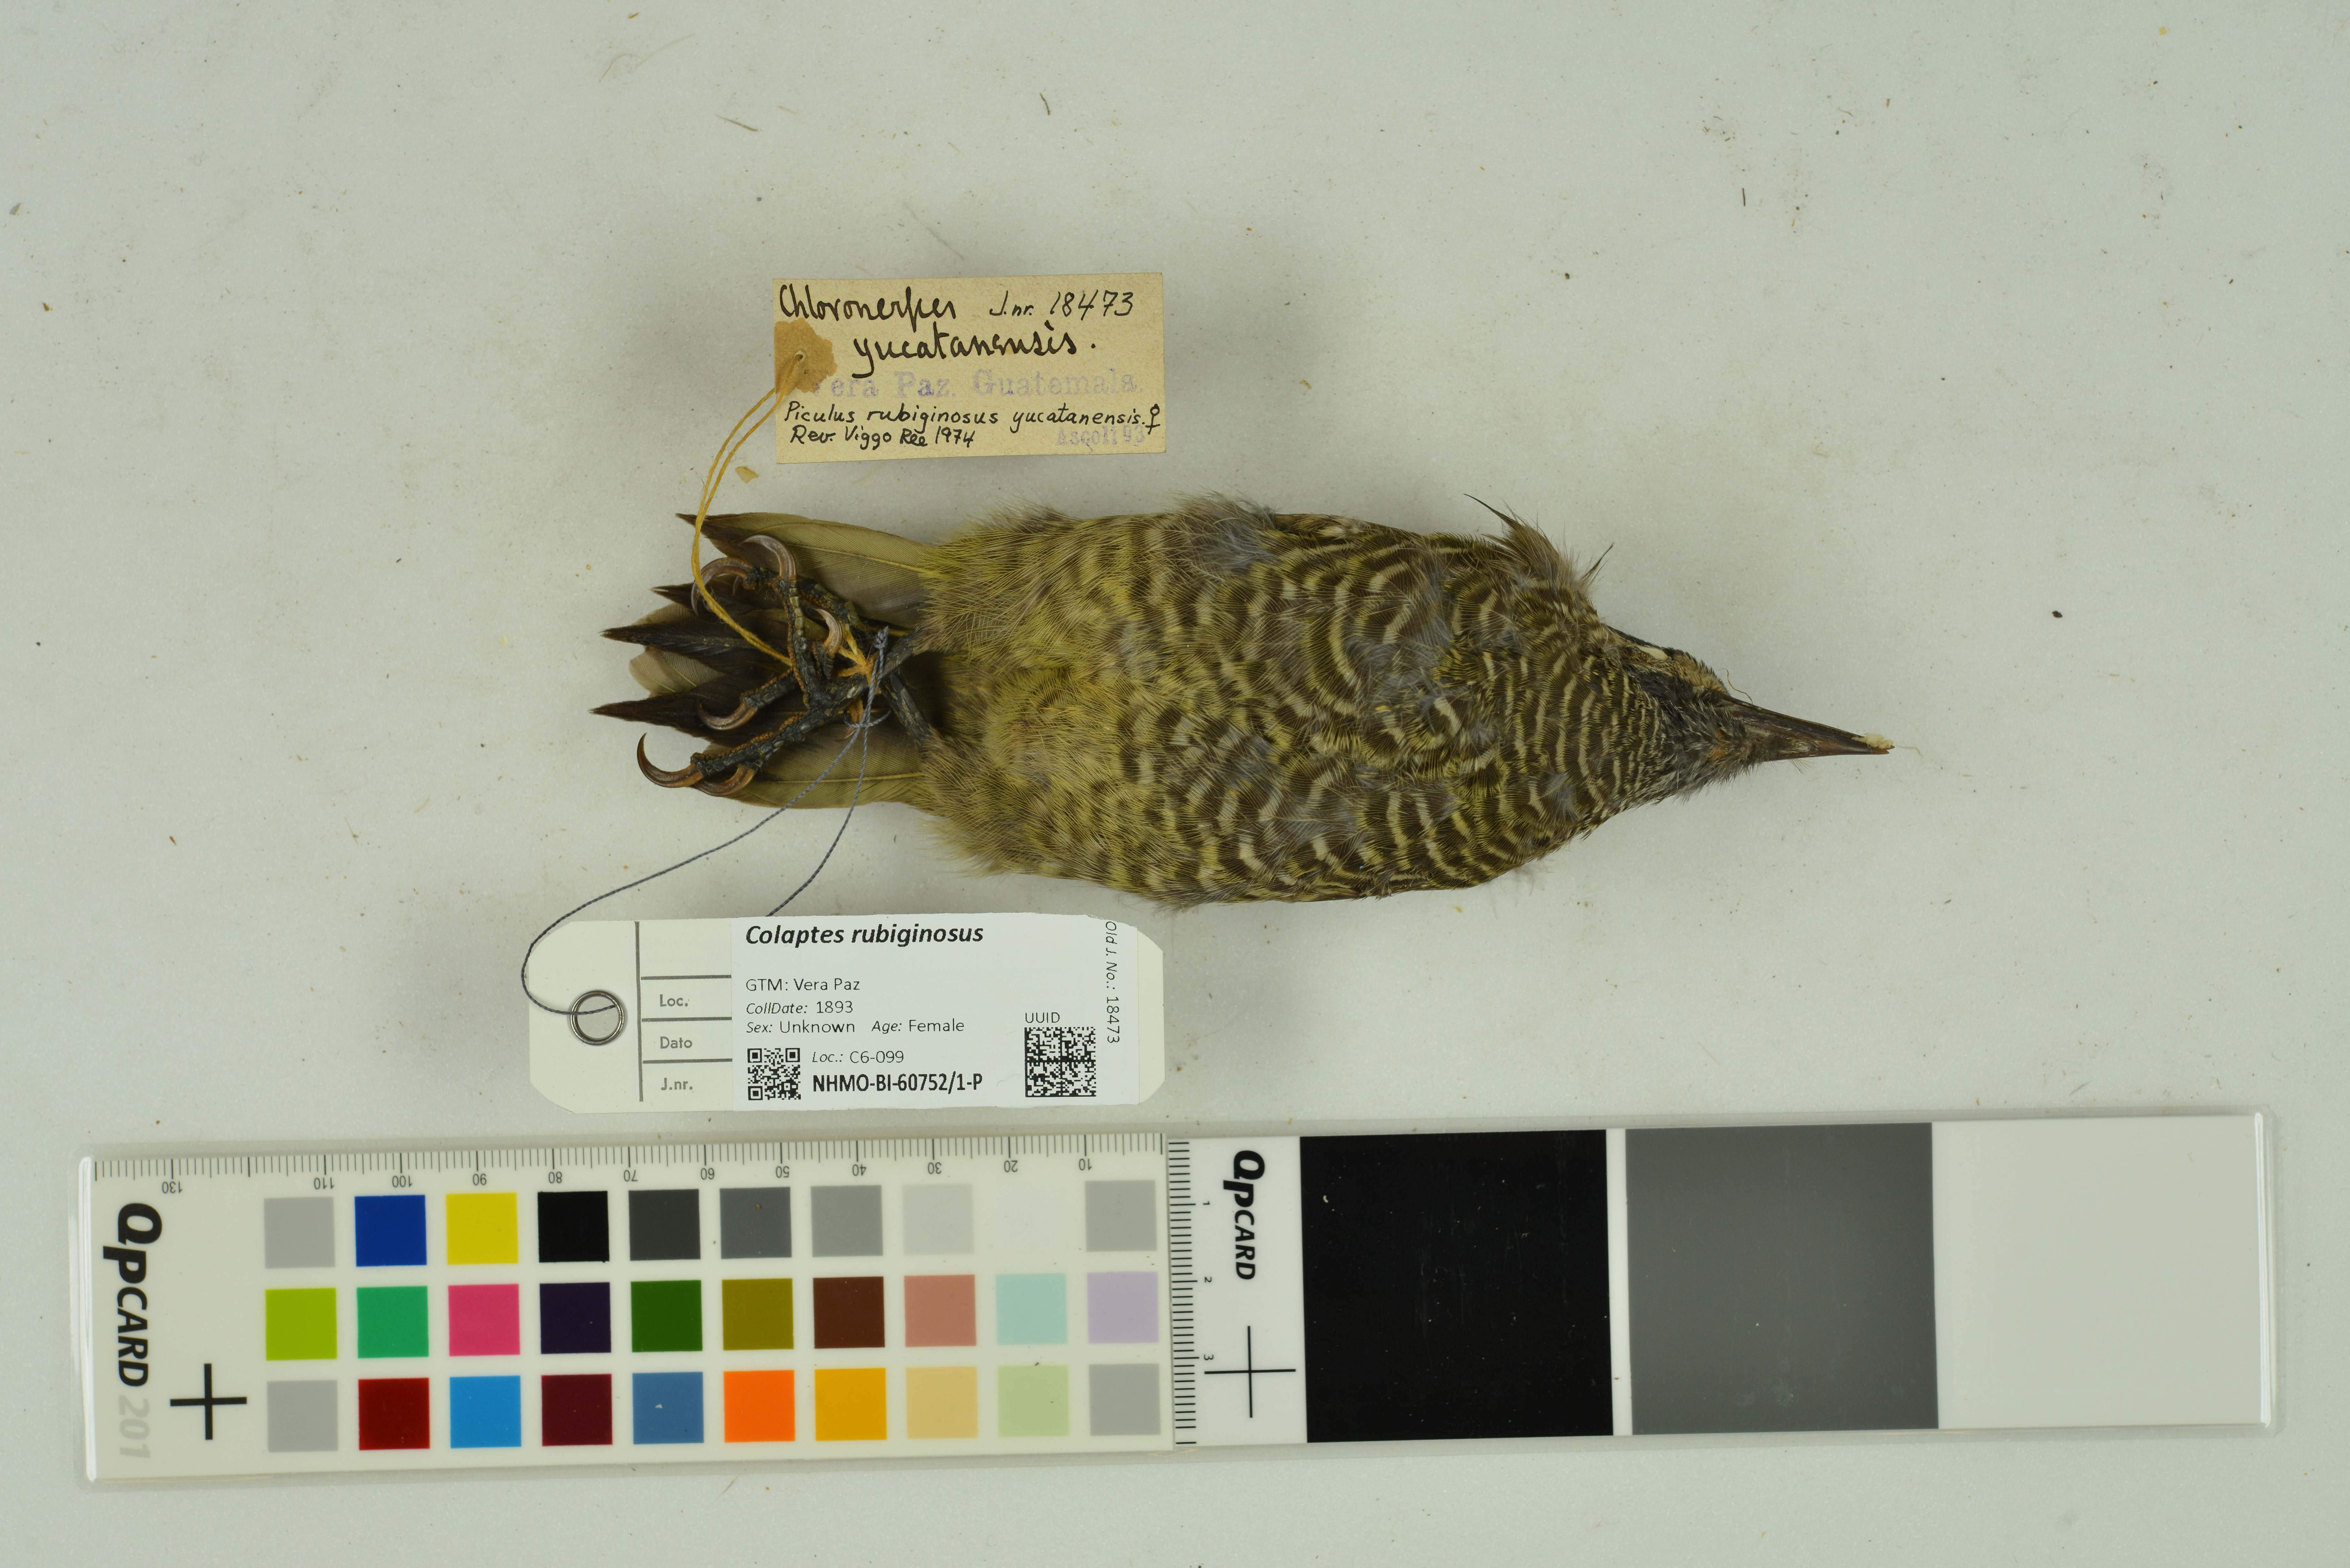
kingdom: Animalia
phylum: Chordata
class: Aves
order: Piciformes
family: Picidae
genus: Colaptes
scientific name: Colaptes rubiginosus
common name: Golden-olive woodpecker
